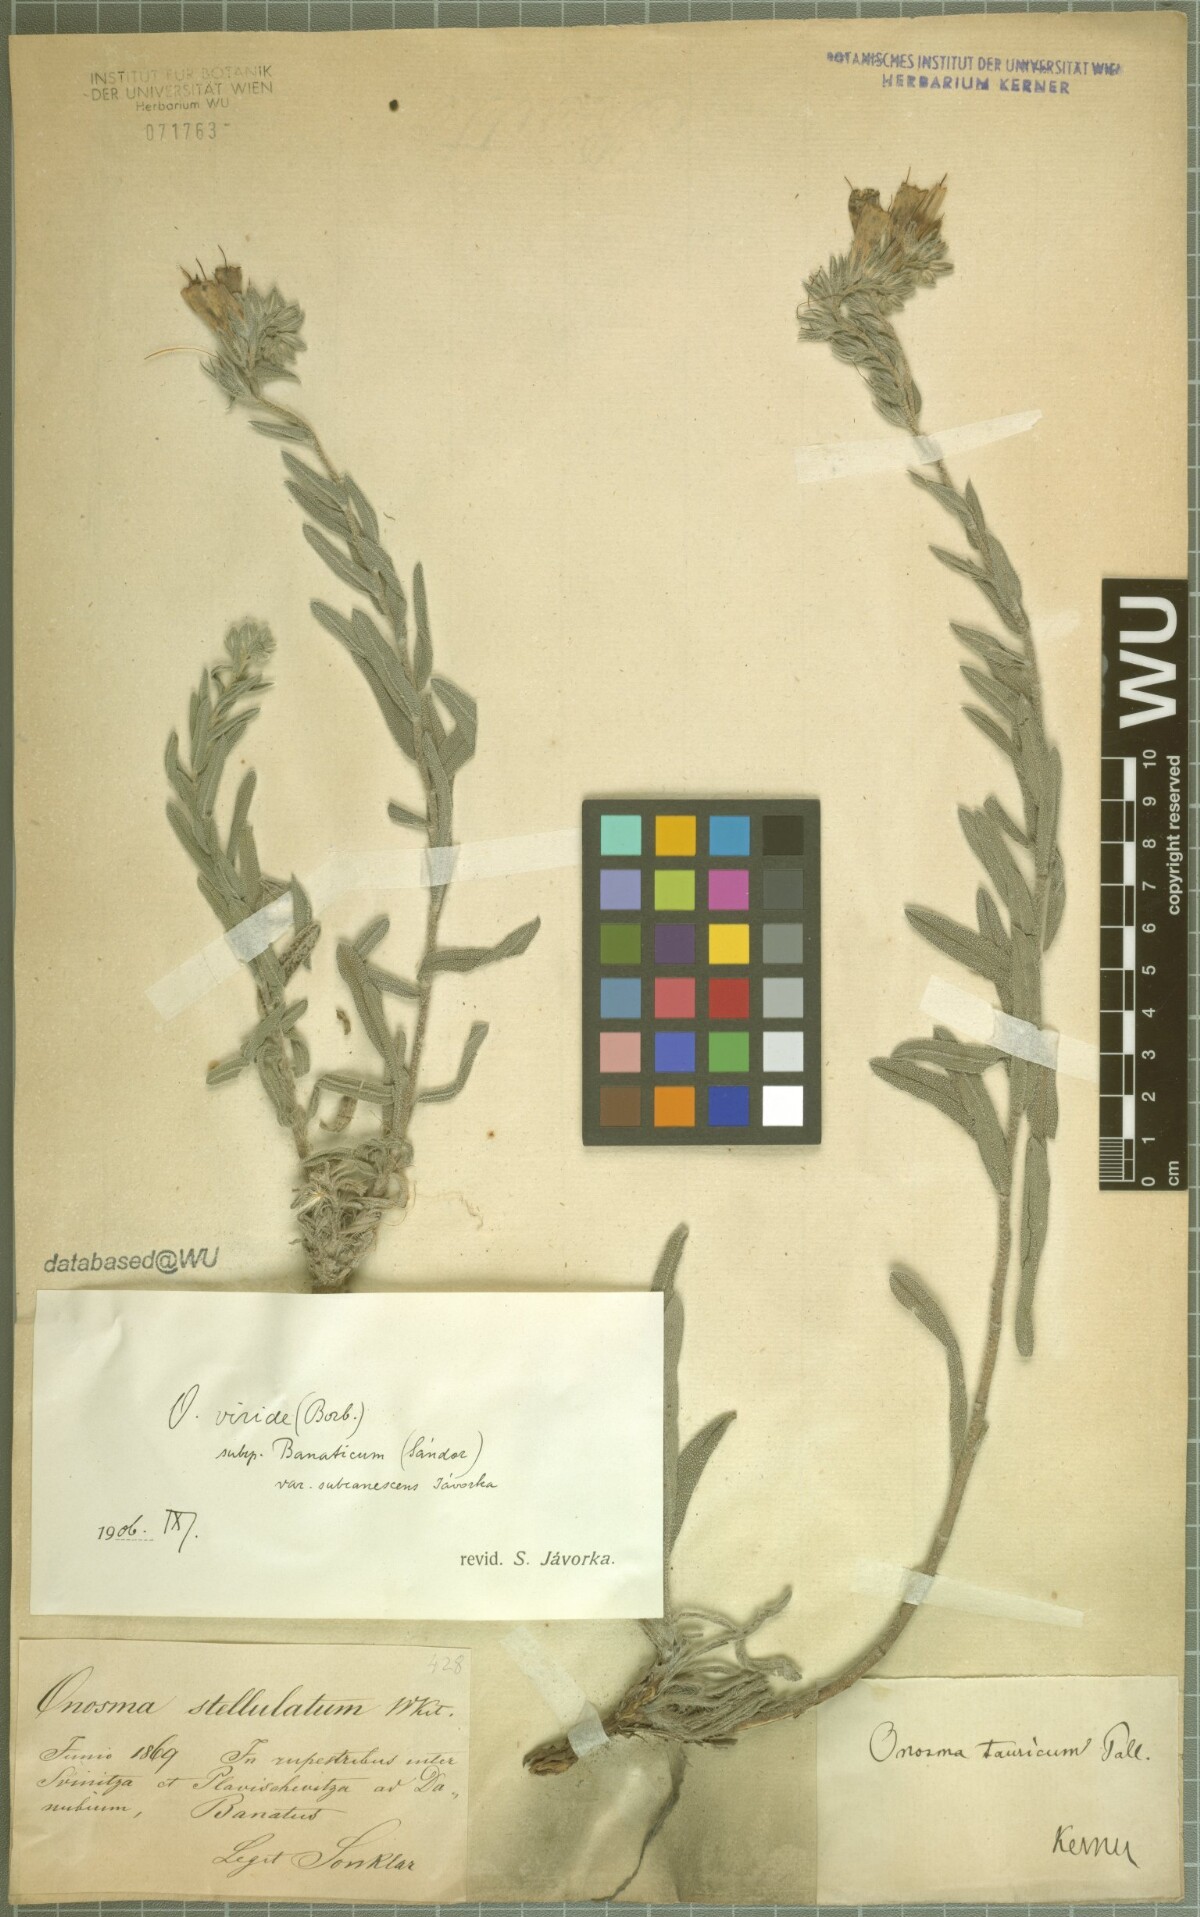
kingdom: Plantae
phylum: Tracheophyta
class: Magnoliopsida
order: Boraginales
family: Boraginaceae
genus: Onosma
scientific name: Onosma viridis
